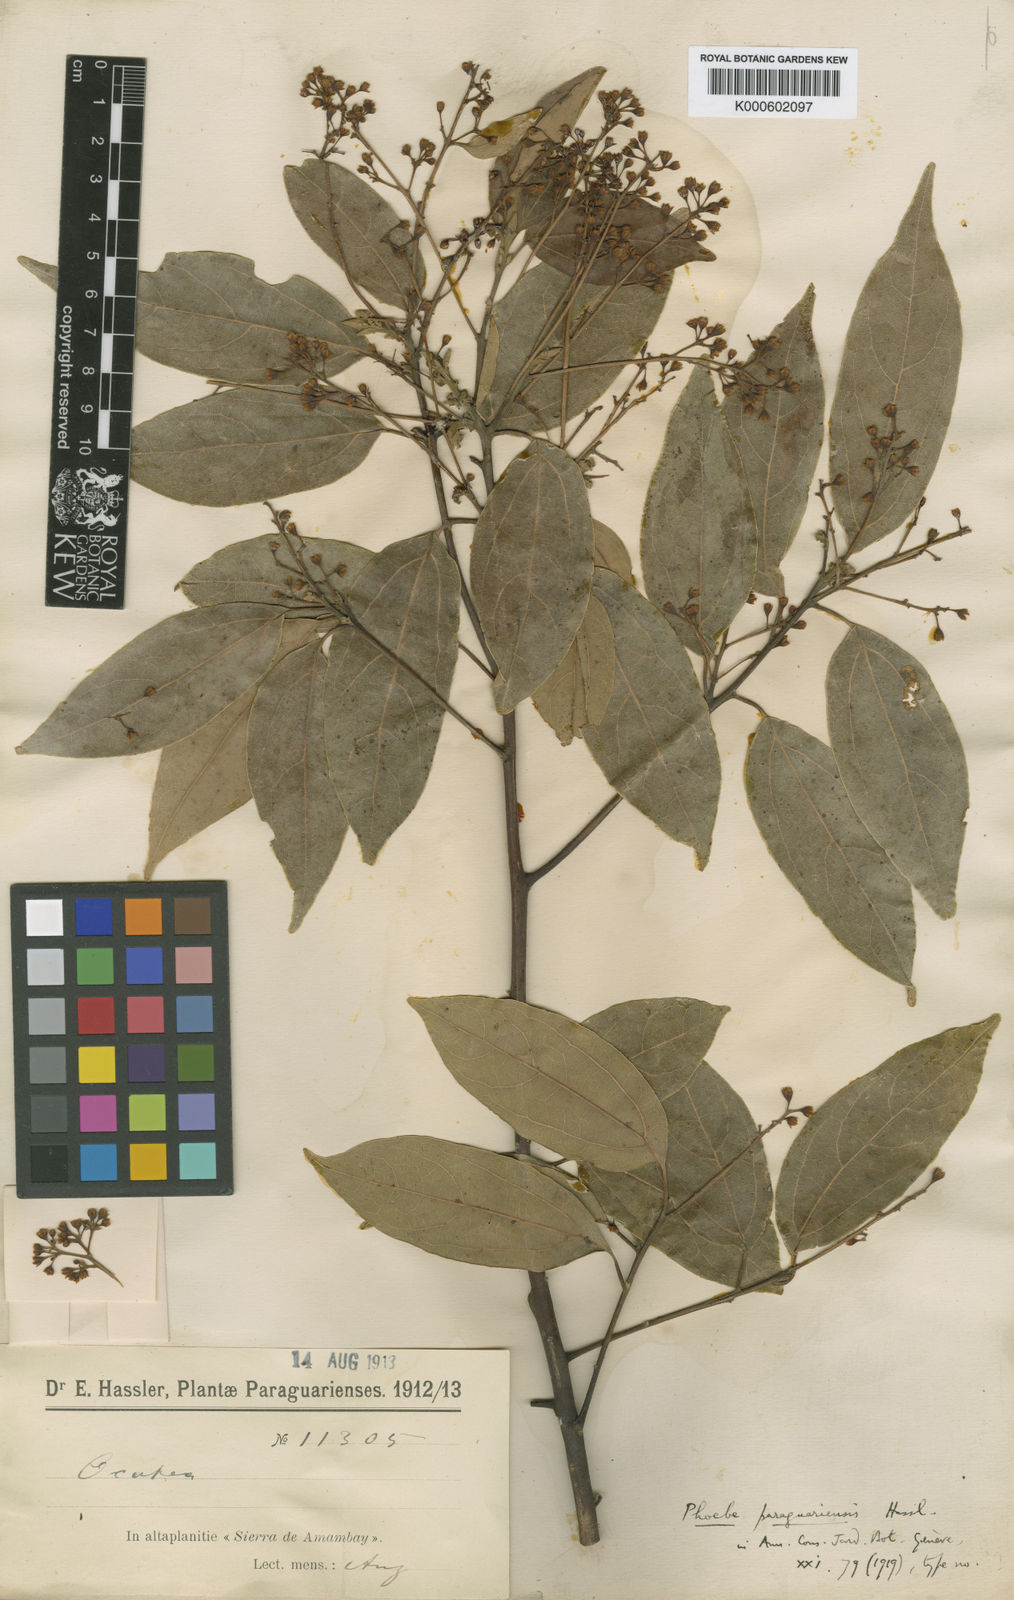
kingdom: Plantae
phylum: Tracheophyta
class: Magnoliopsida
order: Laurales
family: Lauraceae
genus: Aiouea
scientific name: Aiouea montana
